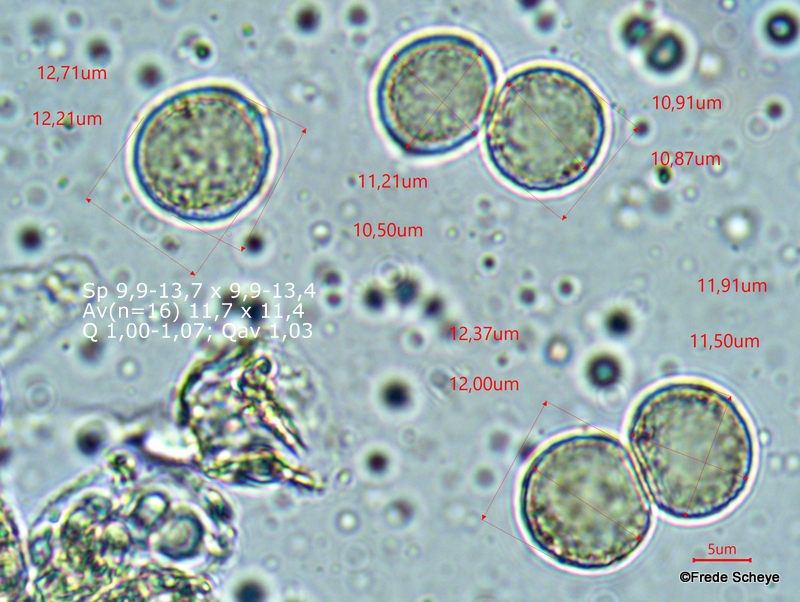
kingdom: Fungi
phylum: Basidiomycota
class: Agaricomycetes
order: Agaricales
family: Amanitaceae
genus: Amanita
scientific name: Amanita vaginata
